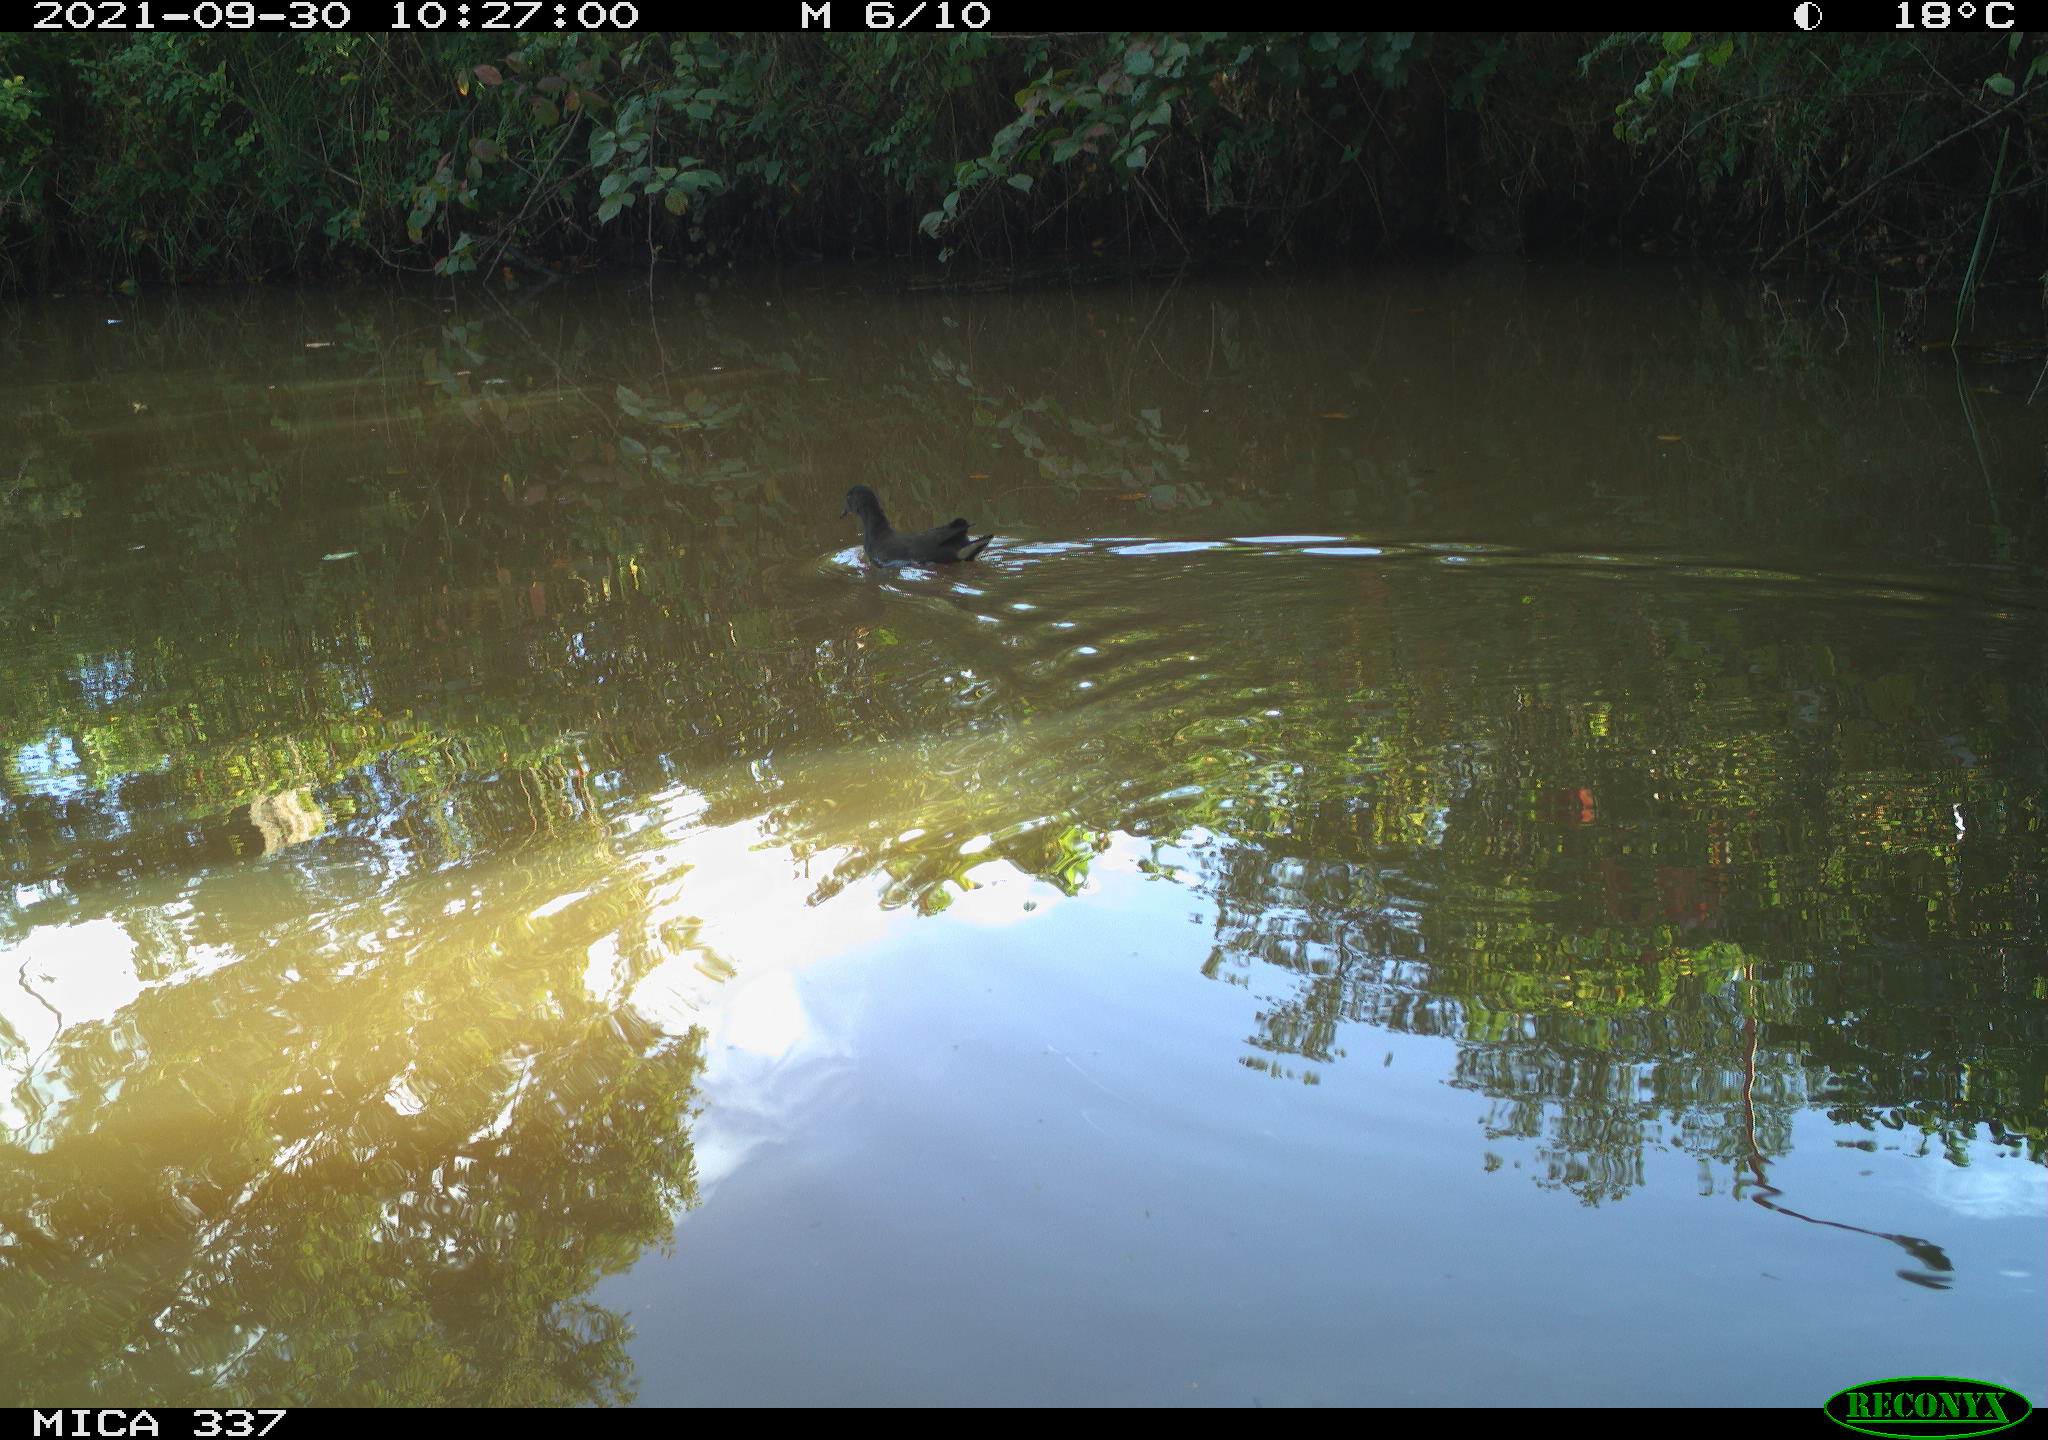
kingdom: Animalia
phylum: Chordata
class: Aves
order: Gruiformes
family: Rallidae
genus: Gallinula
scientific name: Gallinula chloropus
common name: Common moorhen
